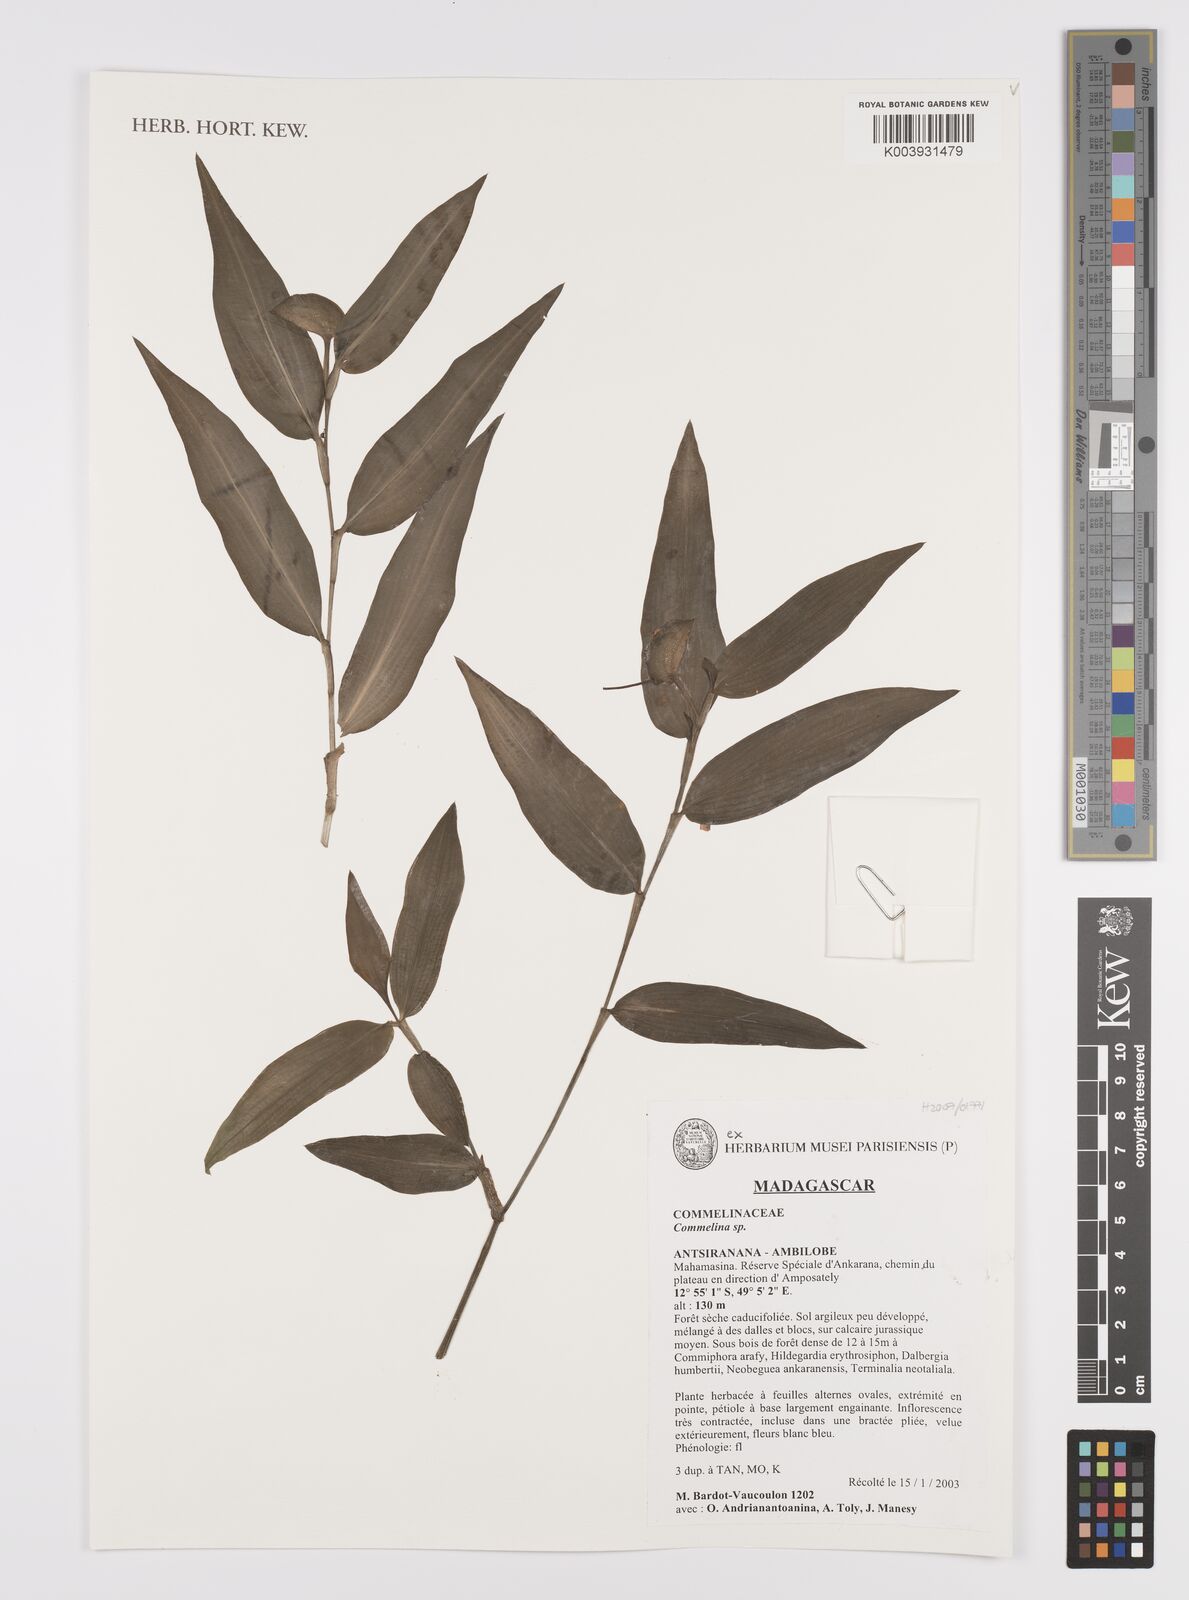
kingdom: Plantae
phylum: Tracheophyta
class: Liliopsida
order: Commelinales
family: Commelinaceae
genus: Commelina
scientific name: Commelina
